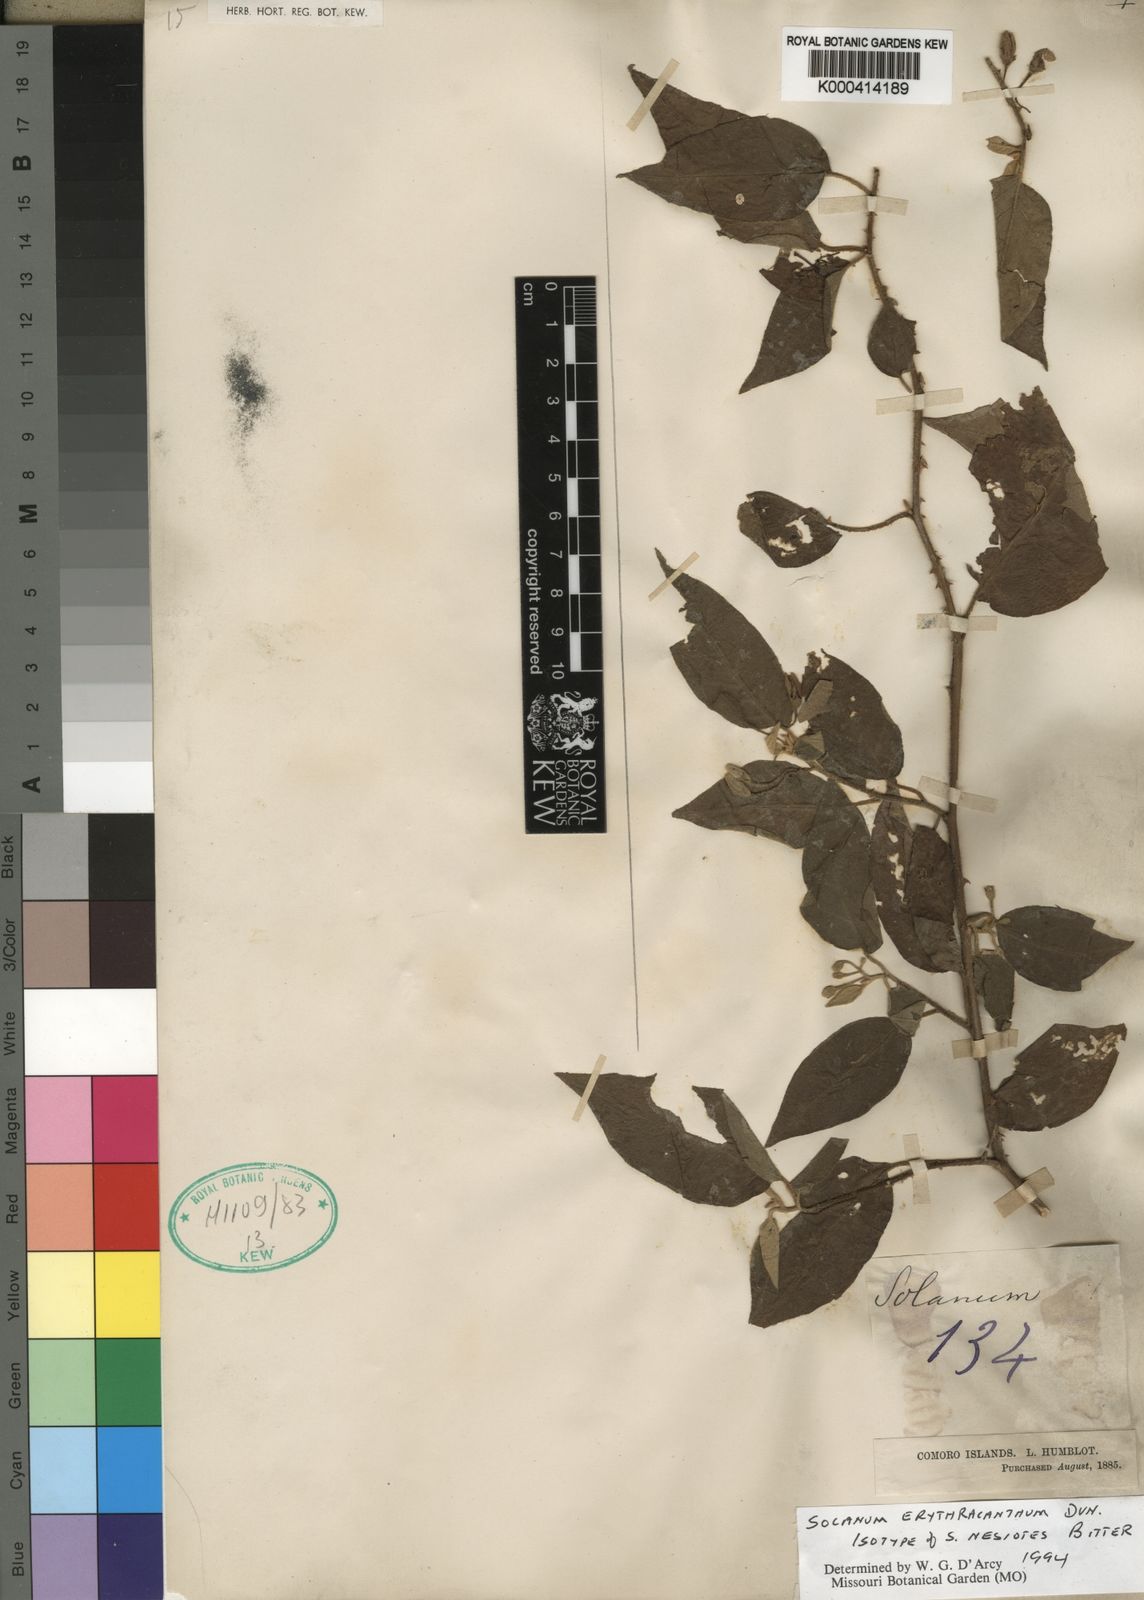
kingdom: Plantae
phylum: Tracheophyta
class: Magnoliopsida
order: Solanales
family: Solanaceae
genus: Solanum
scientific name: Solanum erythracanthum
